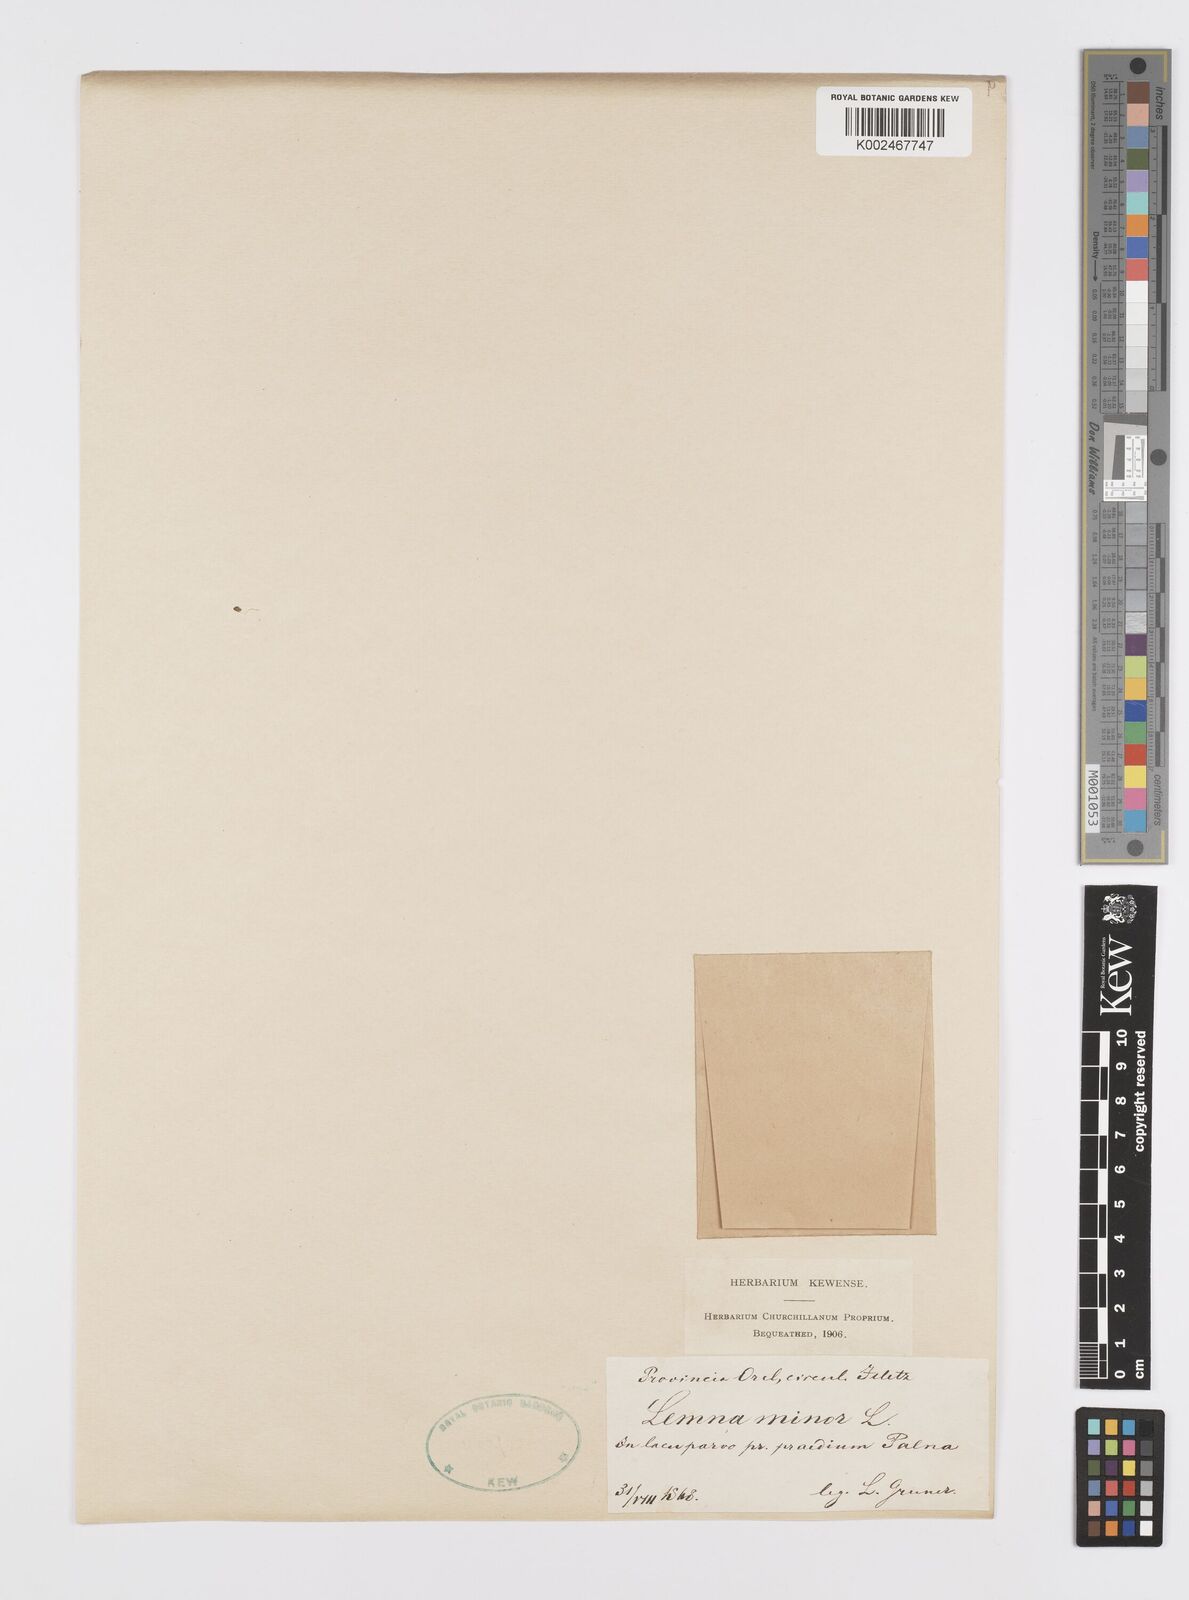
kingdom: Plantae
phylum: Tracheophyta
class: Liliopsida
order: Alismatales
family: Araceae
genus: Lemna
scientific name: Lemna minor
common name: Common duckweed
